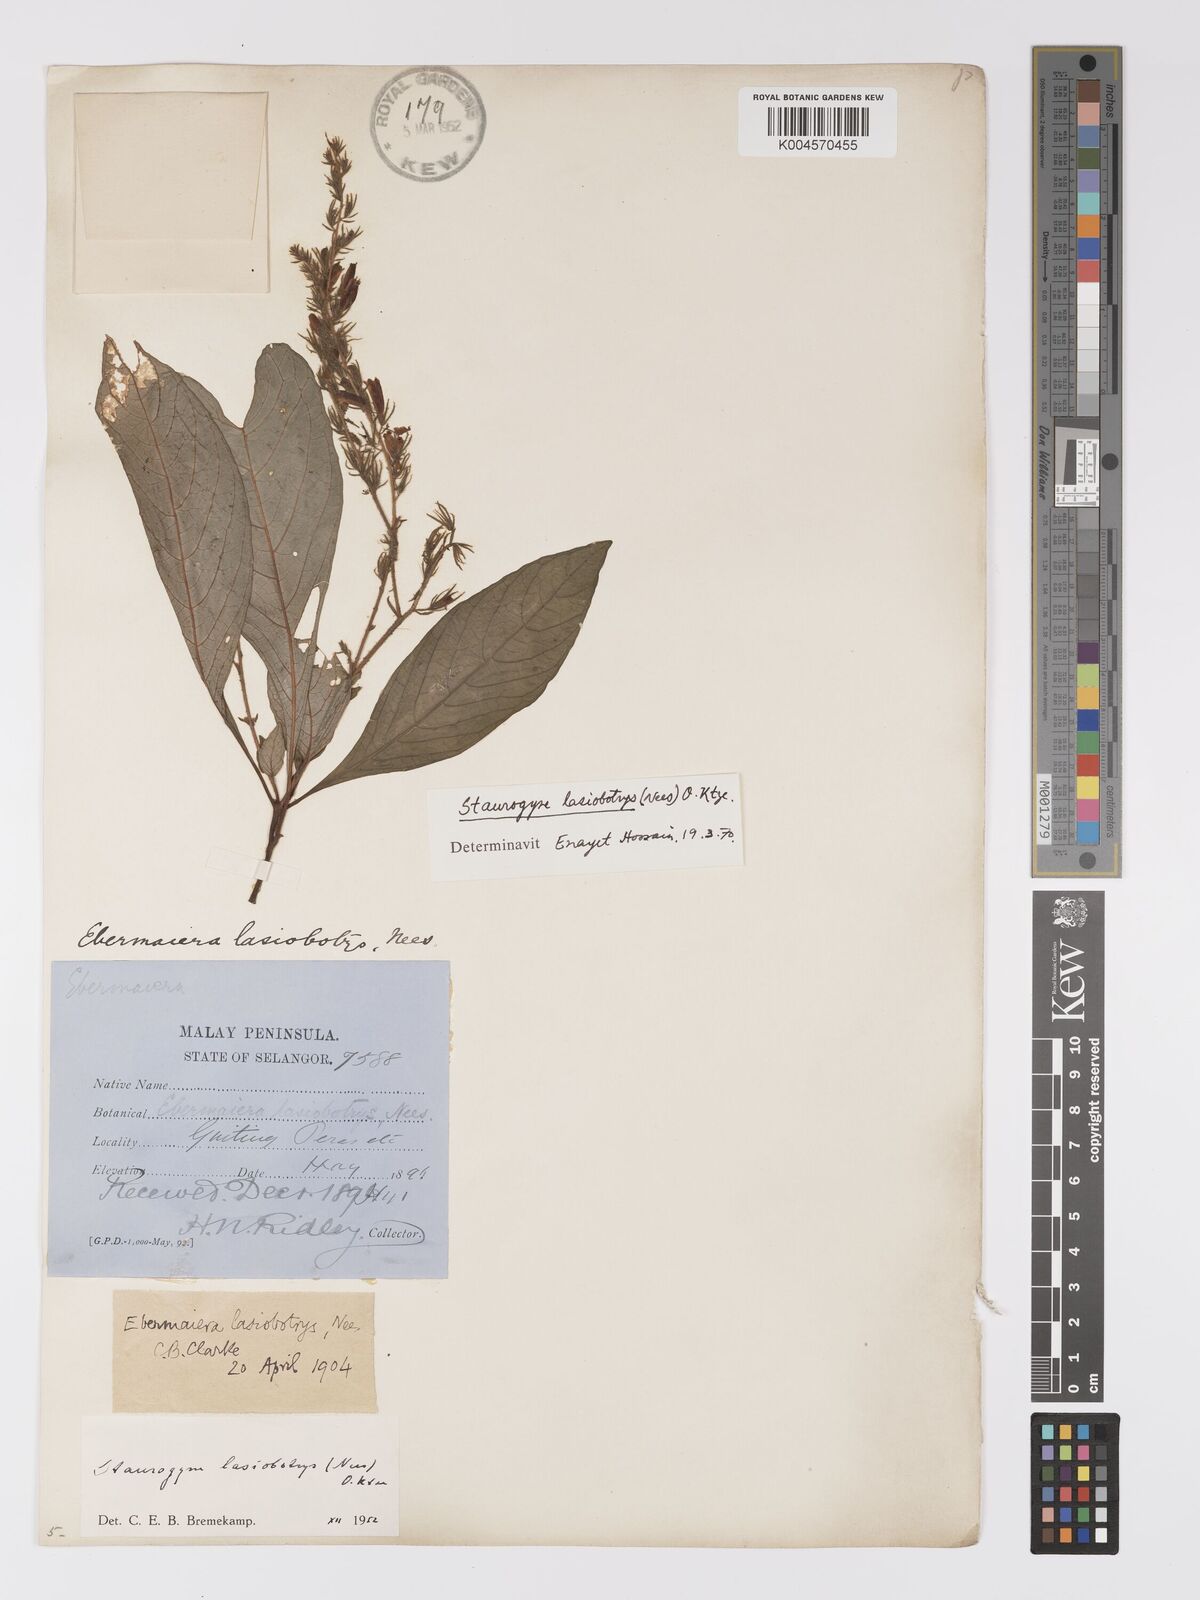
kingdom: Plantae
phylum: Tracheophyta
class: Magnoliopsida
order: Lamiales
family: Acanthaceae
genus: Staurogyne
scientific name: Staurogyne lasiobotrys
